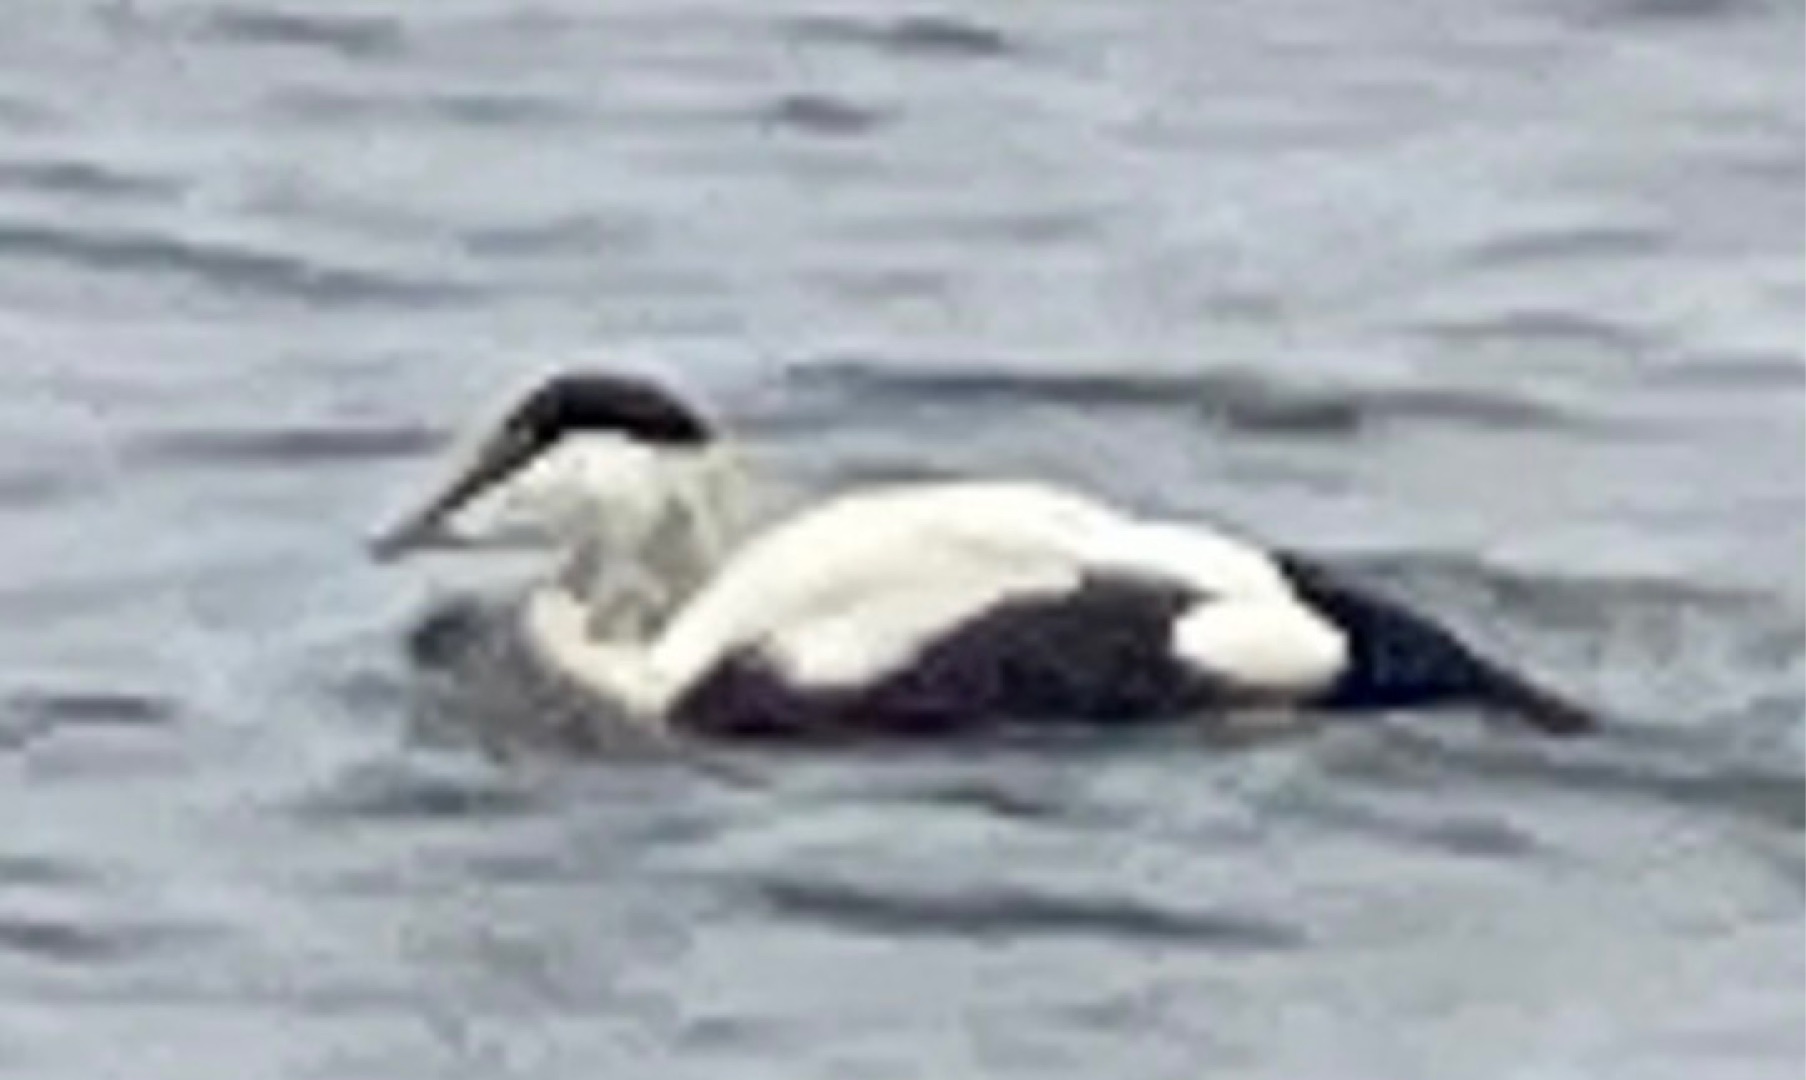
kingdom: Animalia
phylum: Chordata
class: Aves
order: Anseriformes
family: Anatidae
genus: Somateria
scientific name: Somateria mollissima
